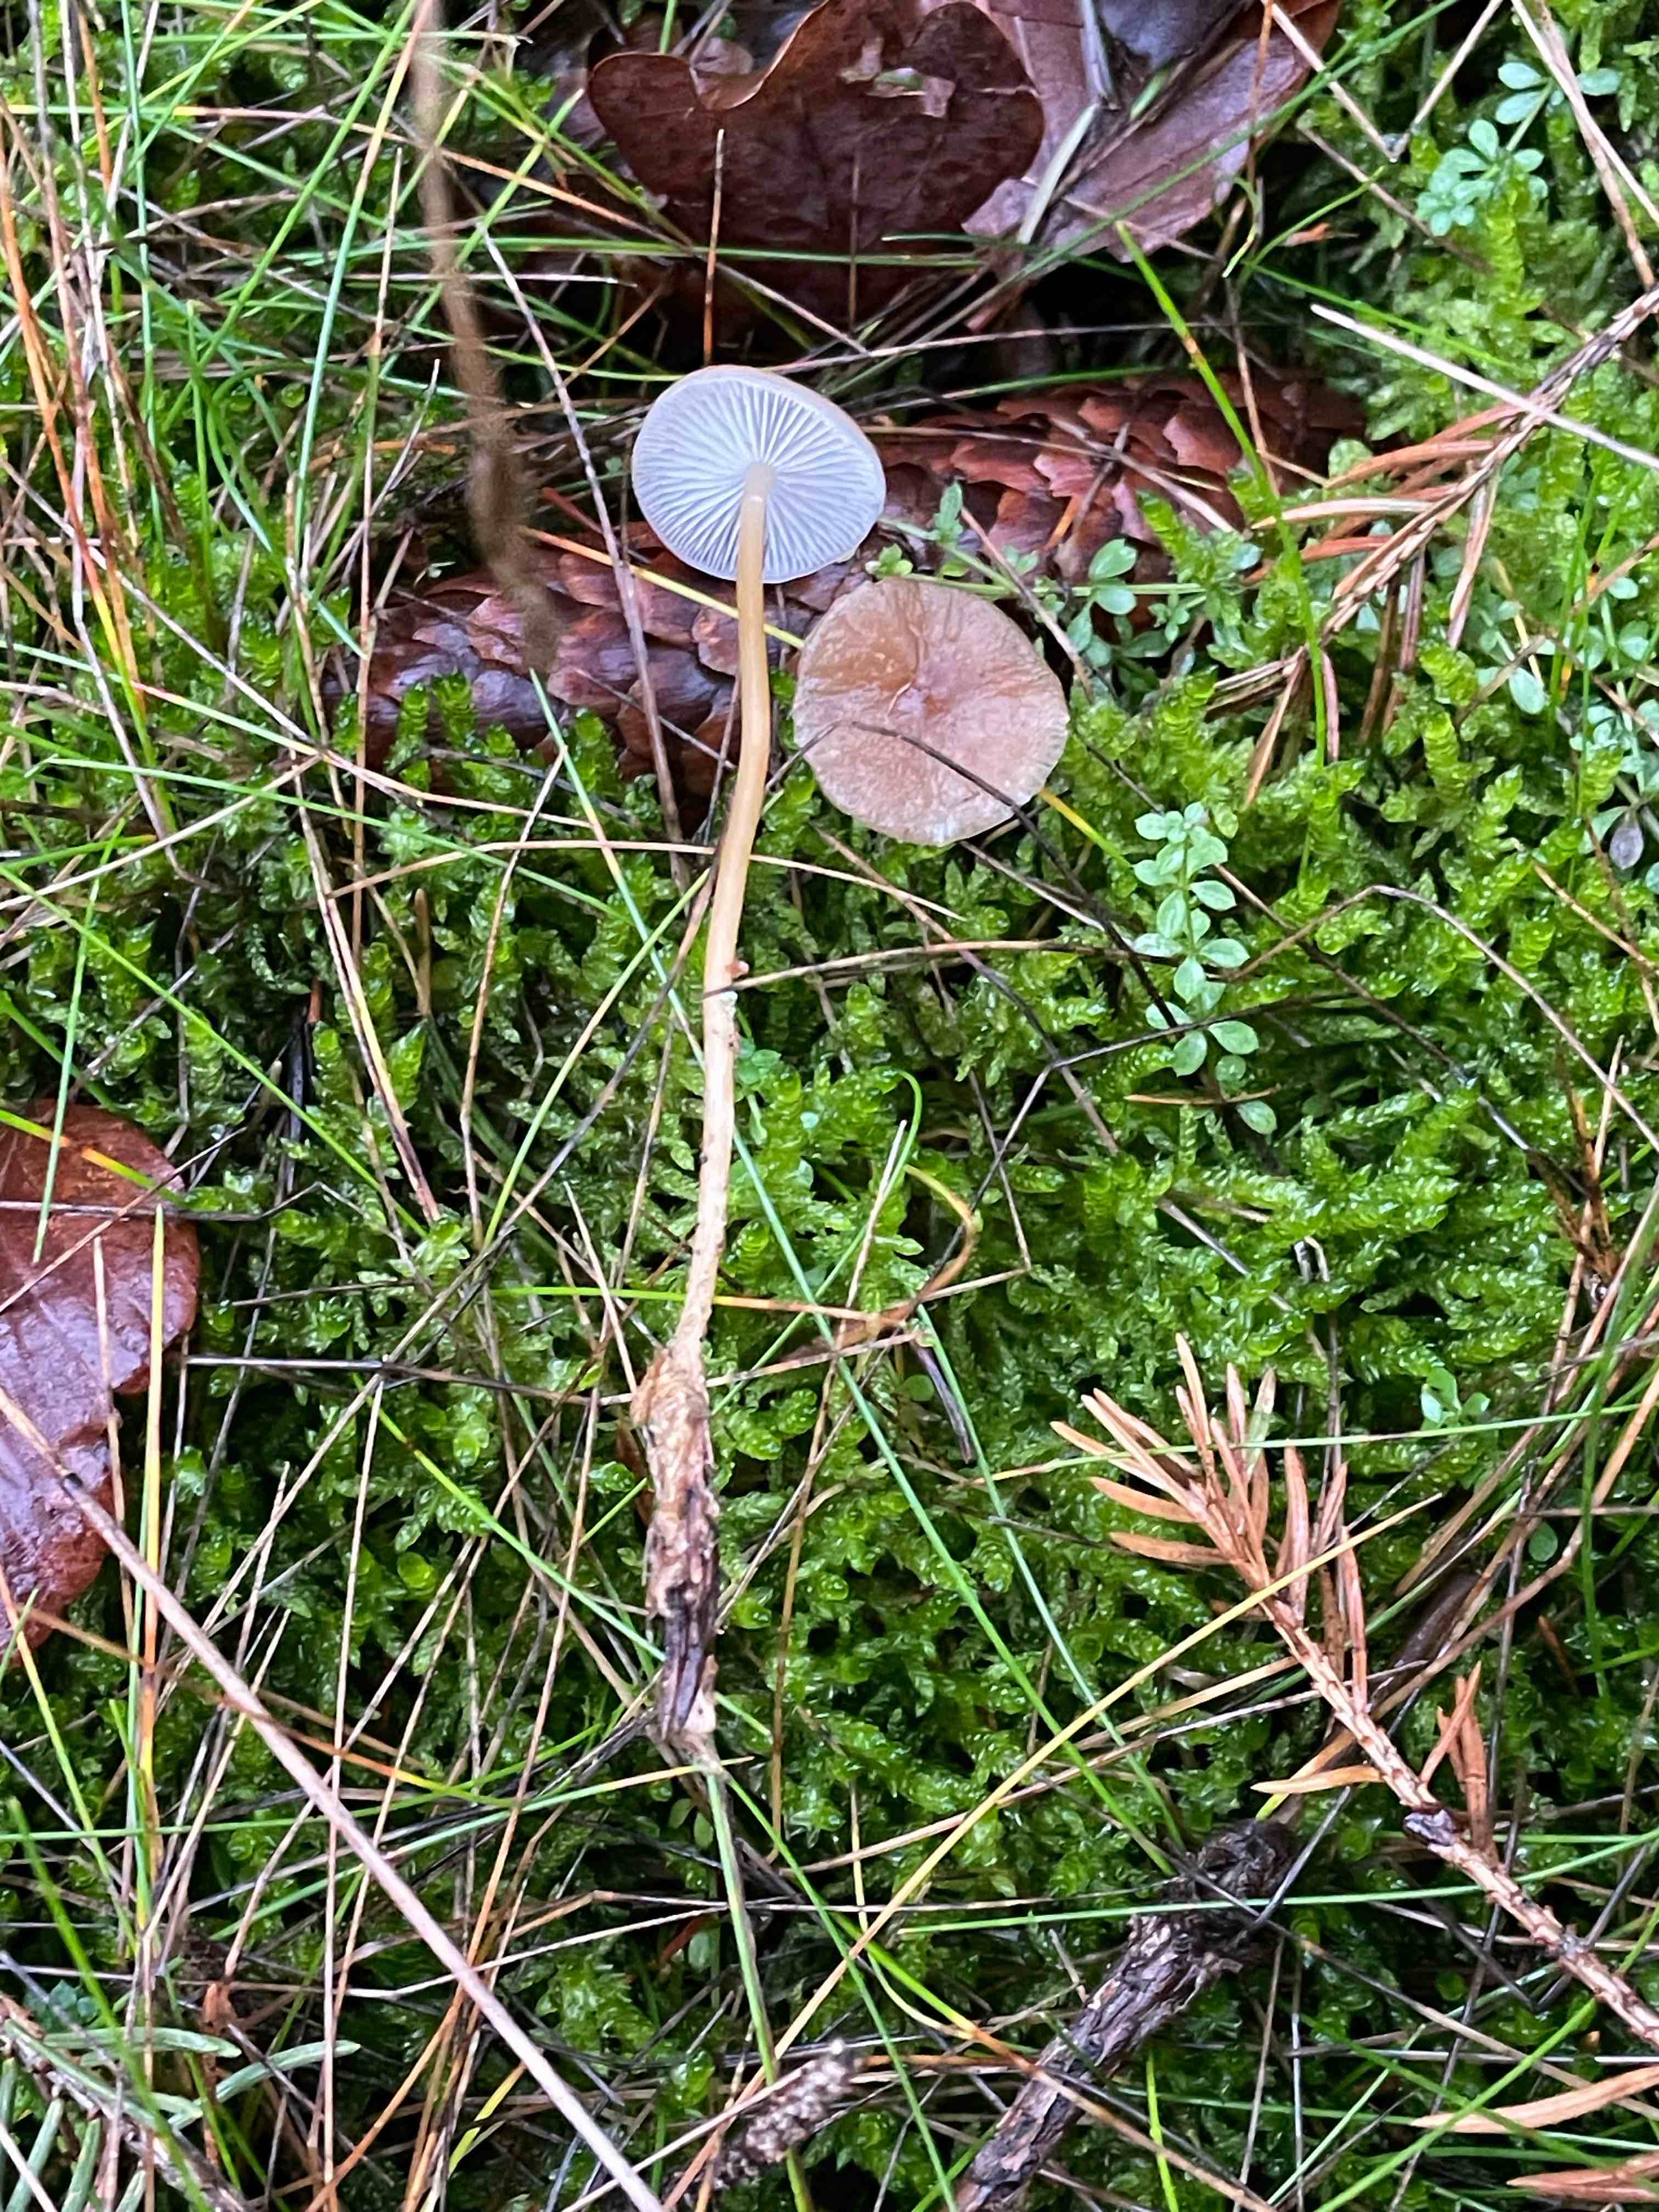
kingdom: Fungi
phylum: Basidiomycota
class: Agaricomycetes
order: Agaricales
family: Physalacriaceae
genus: Strobilurus
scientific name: Strobilurus esculentus
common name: gran-koglehat
